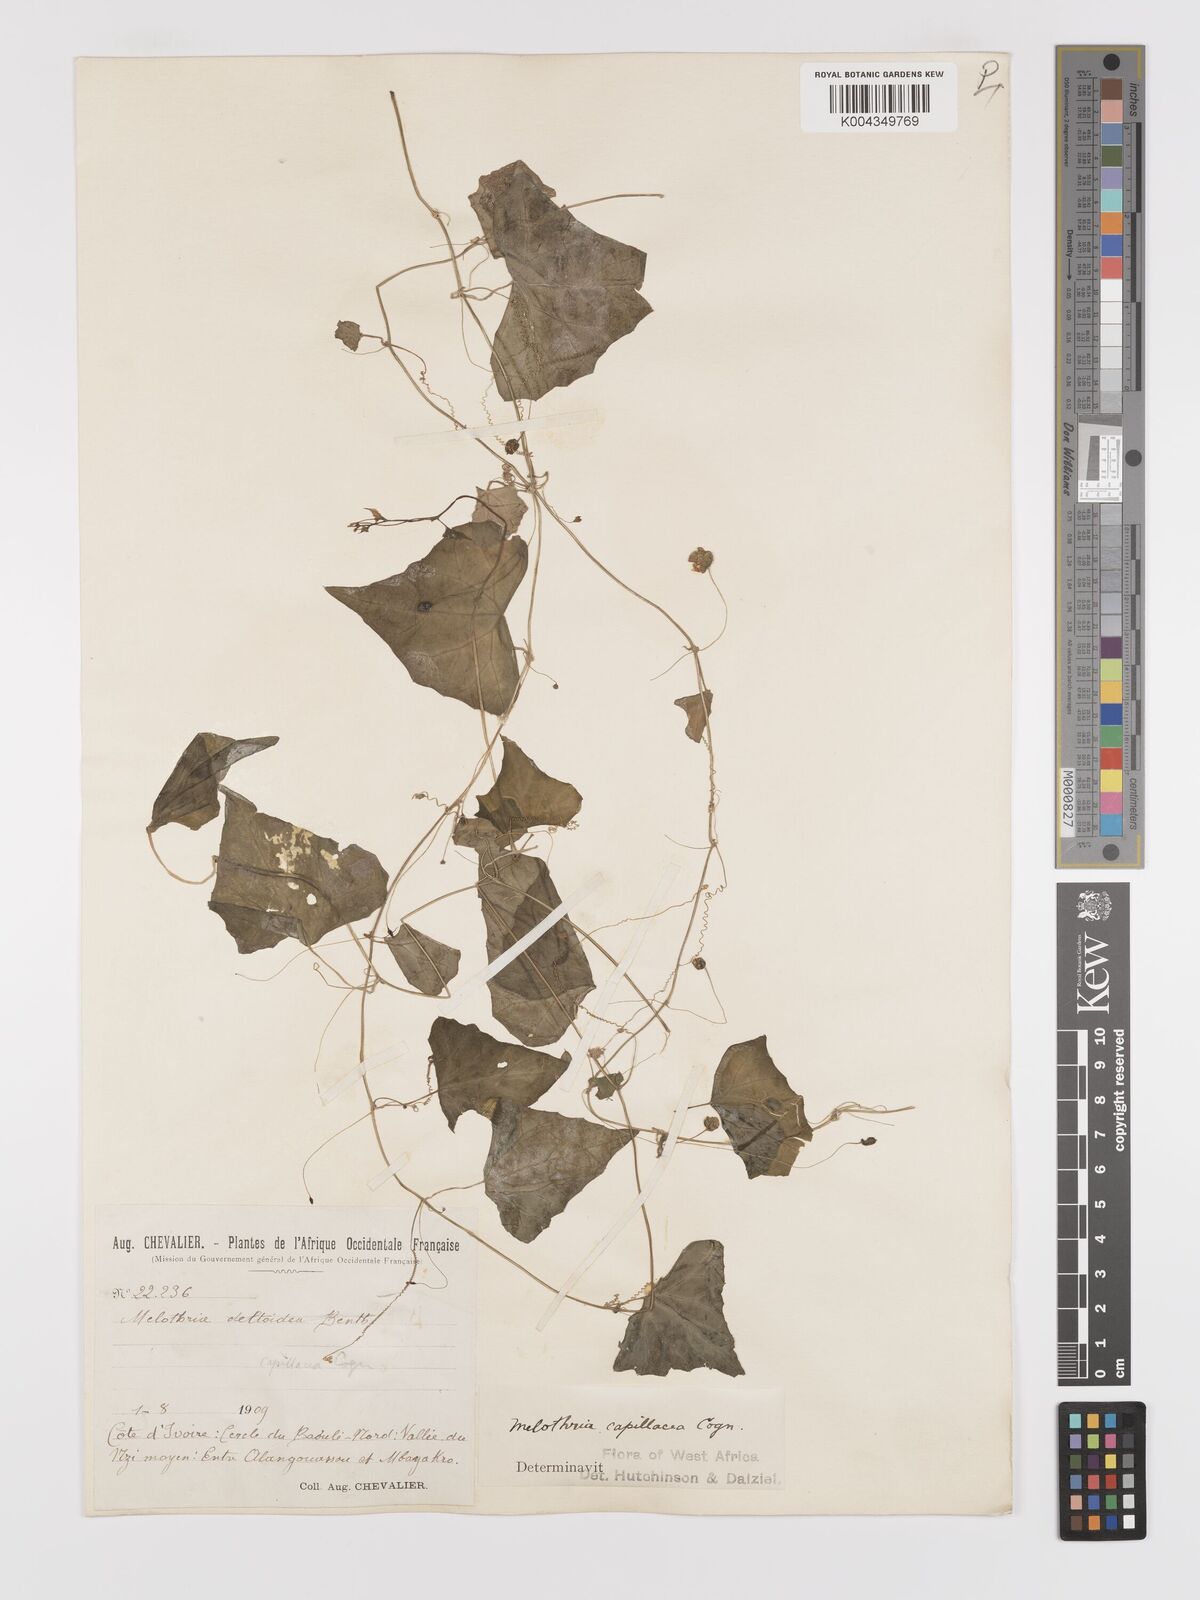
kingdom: Plantae
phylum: Tracheophyta
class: Magnoliopsida
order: Cucurbitales
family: Cucurbitaceae
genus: Zehneria
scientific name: Zehneria capillacea
